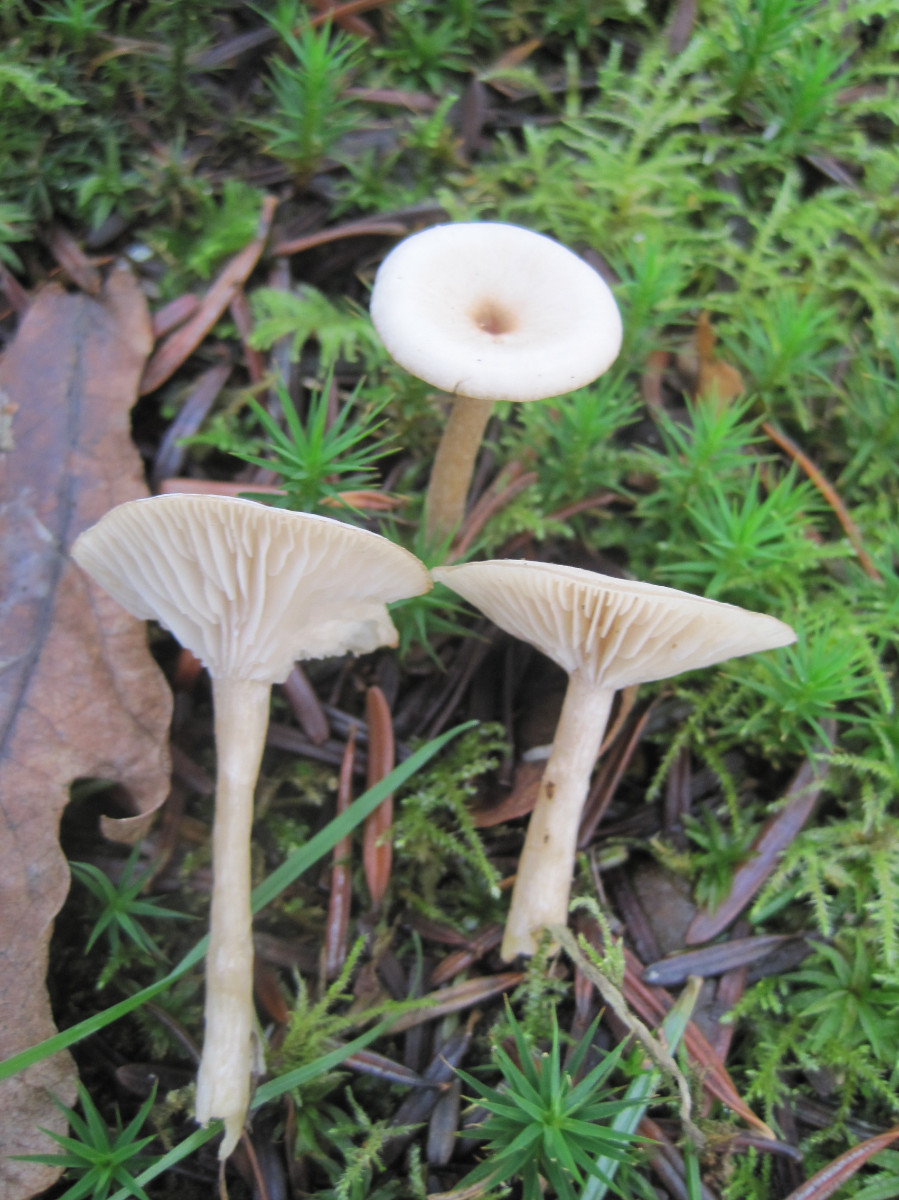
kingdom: Fungi
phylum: Basidiomycota
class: Agaricomycetes
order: Agaricales
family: Tricholomataceae
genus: Clitocybe
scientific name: Clitocybe fragrans
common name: vellugtende tragthat
